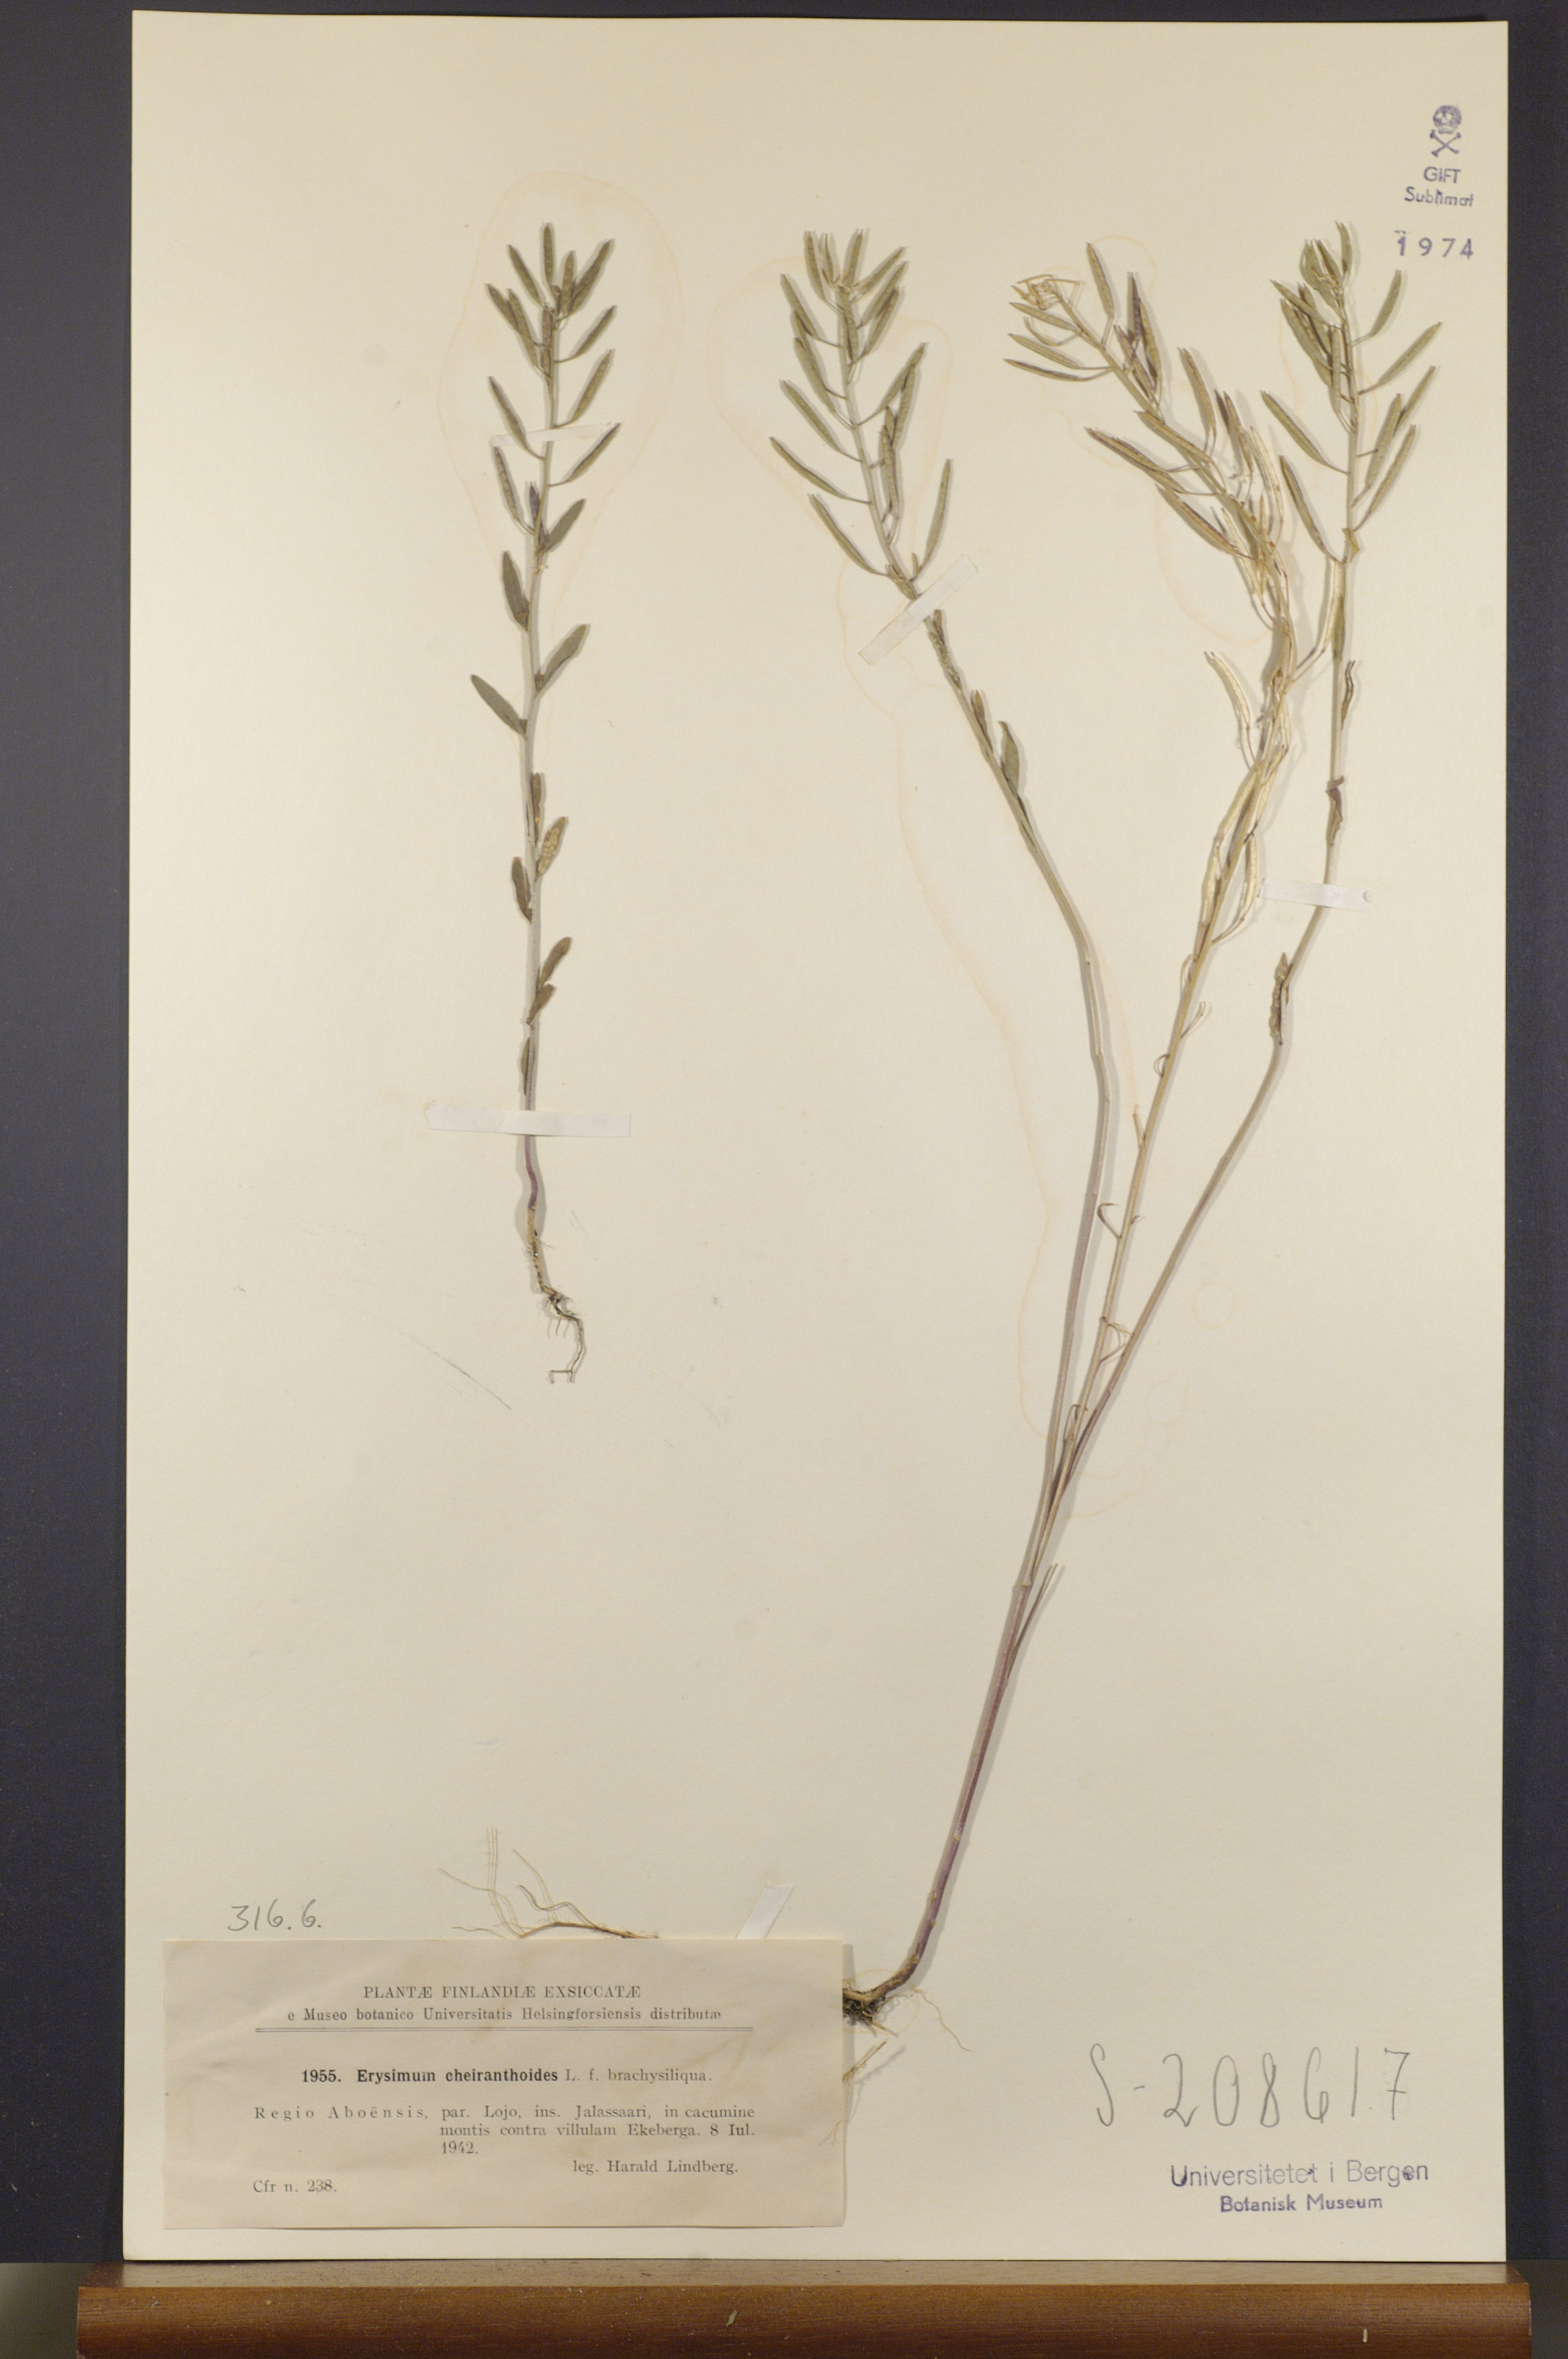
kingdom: Plantae
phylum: Tracheophyta
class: Magnoliopsida
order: Brassicales
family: Brassicaceae
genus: Erysimum
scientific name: Erysimum cheiranthoides
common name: Treacle mustard
